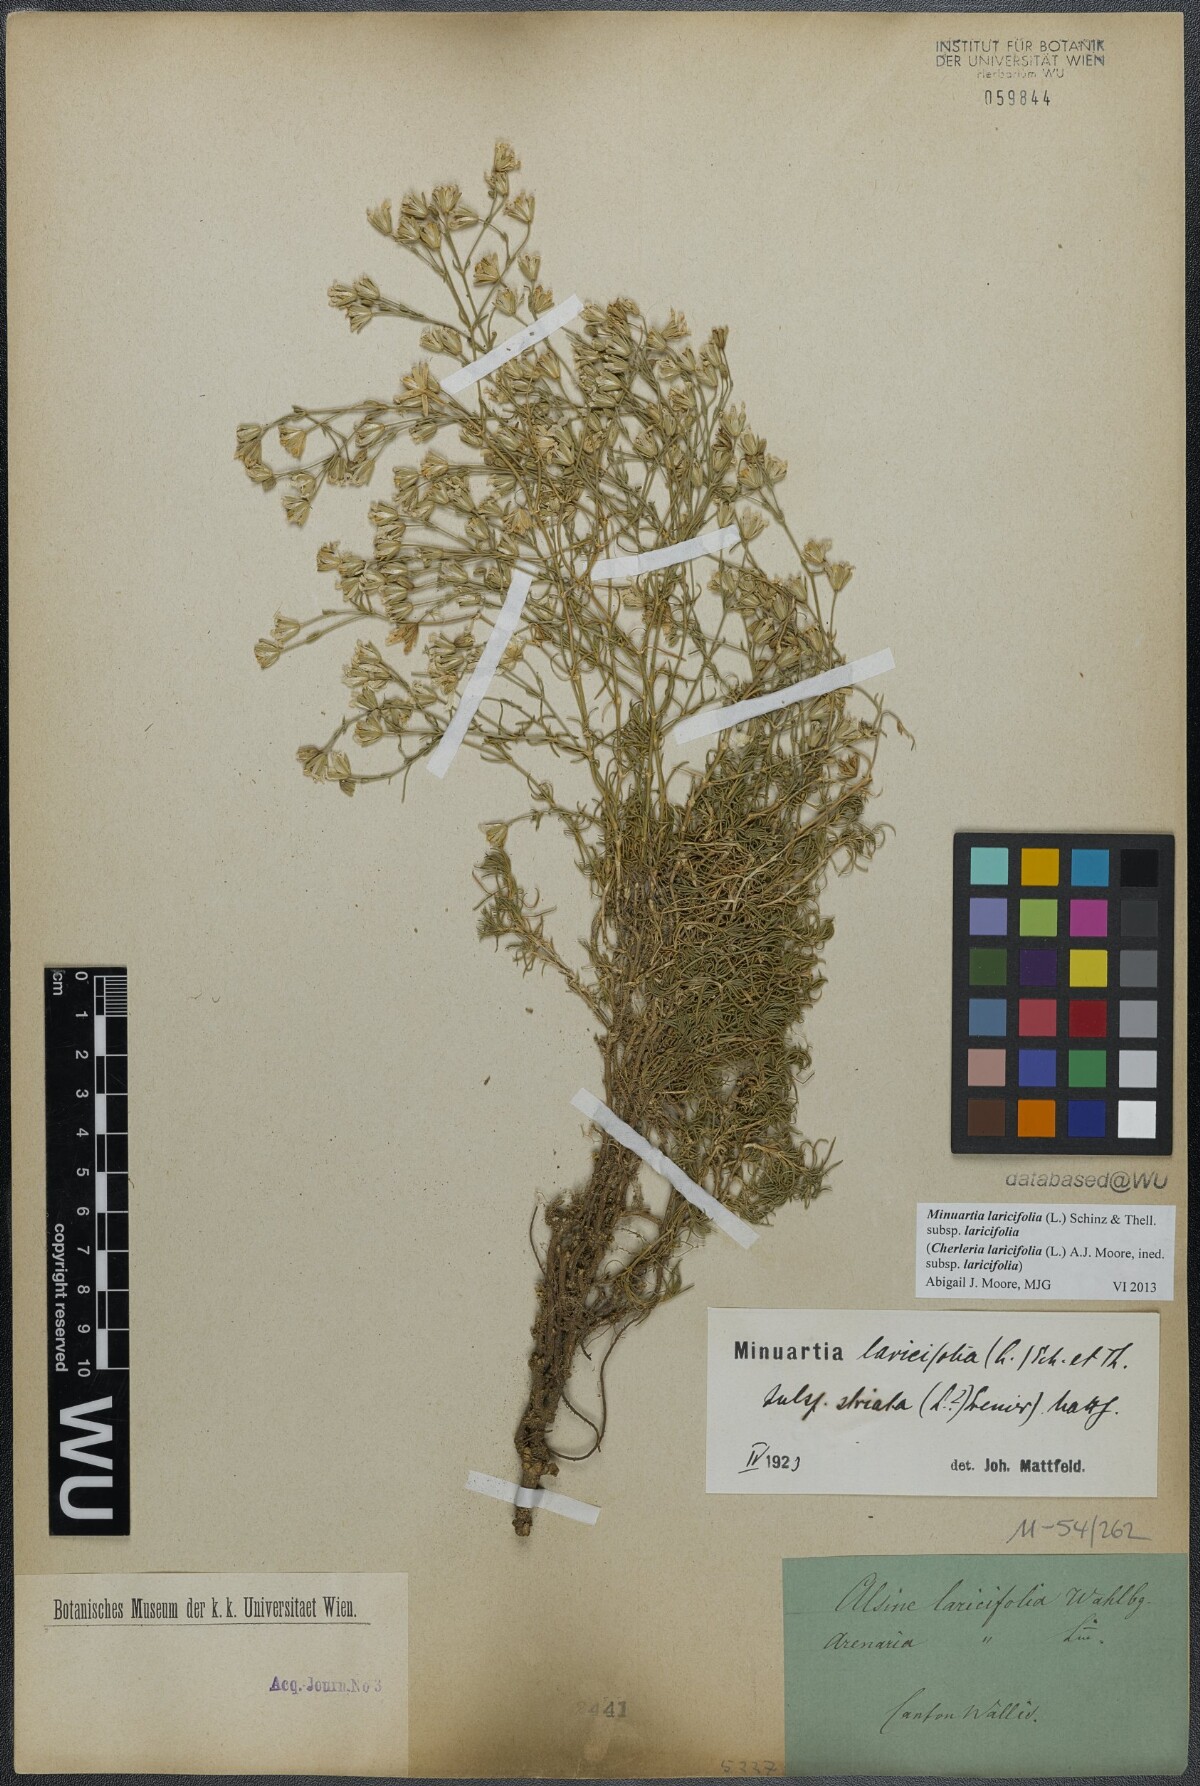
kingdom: Plantae
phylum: Tracheophyta
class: Magnoliopsida
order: Caryophyllales
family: Caryophyllaceae
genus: Cherleria
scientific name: Cherleria laricifolia
